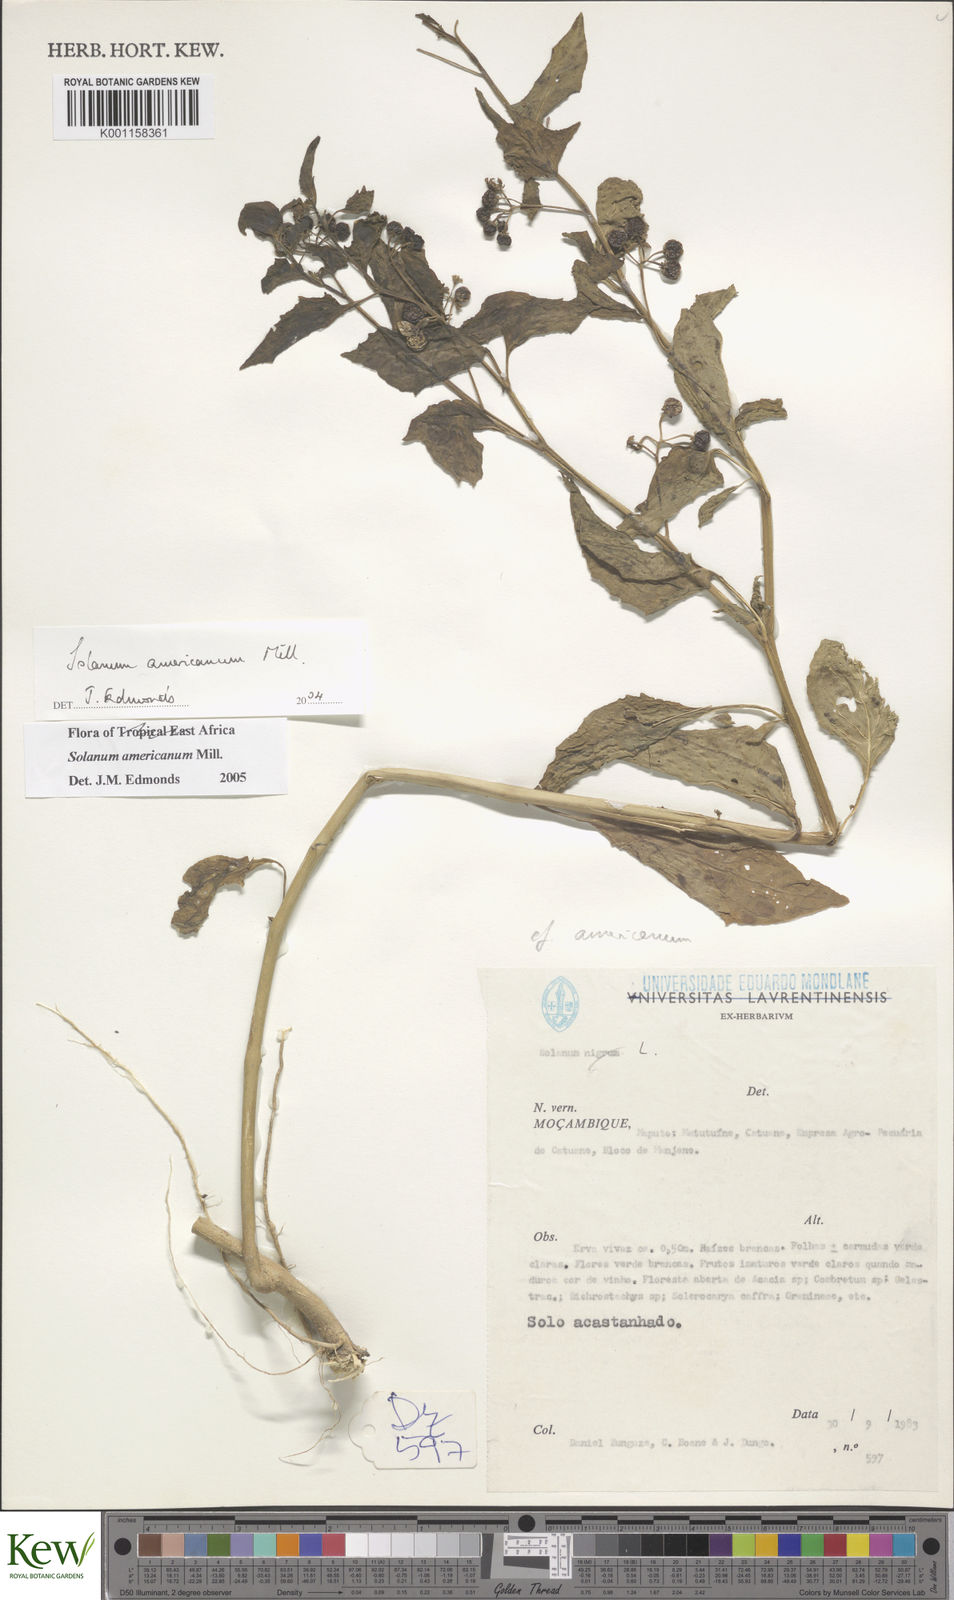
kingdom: Plantae
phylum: Tracheophyta
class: Magnoliopsida
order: Solanales
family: Solanaceae
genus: Solanum
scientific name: Solanum americanum
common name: American black nightshade
